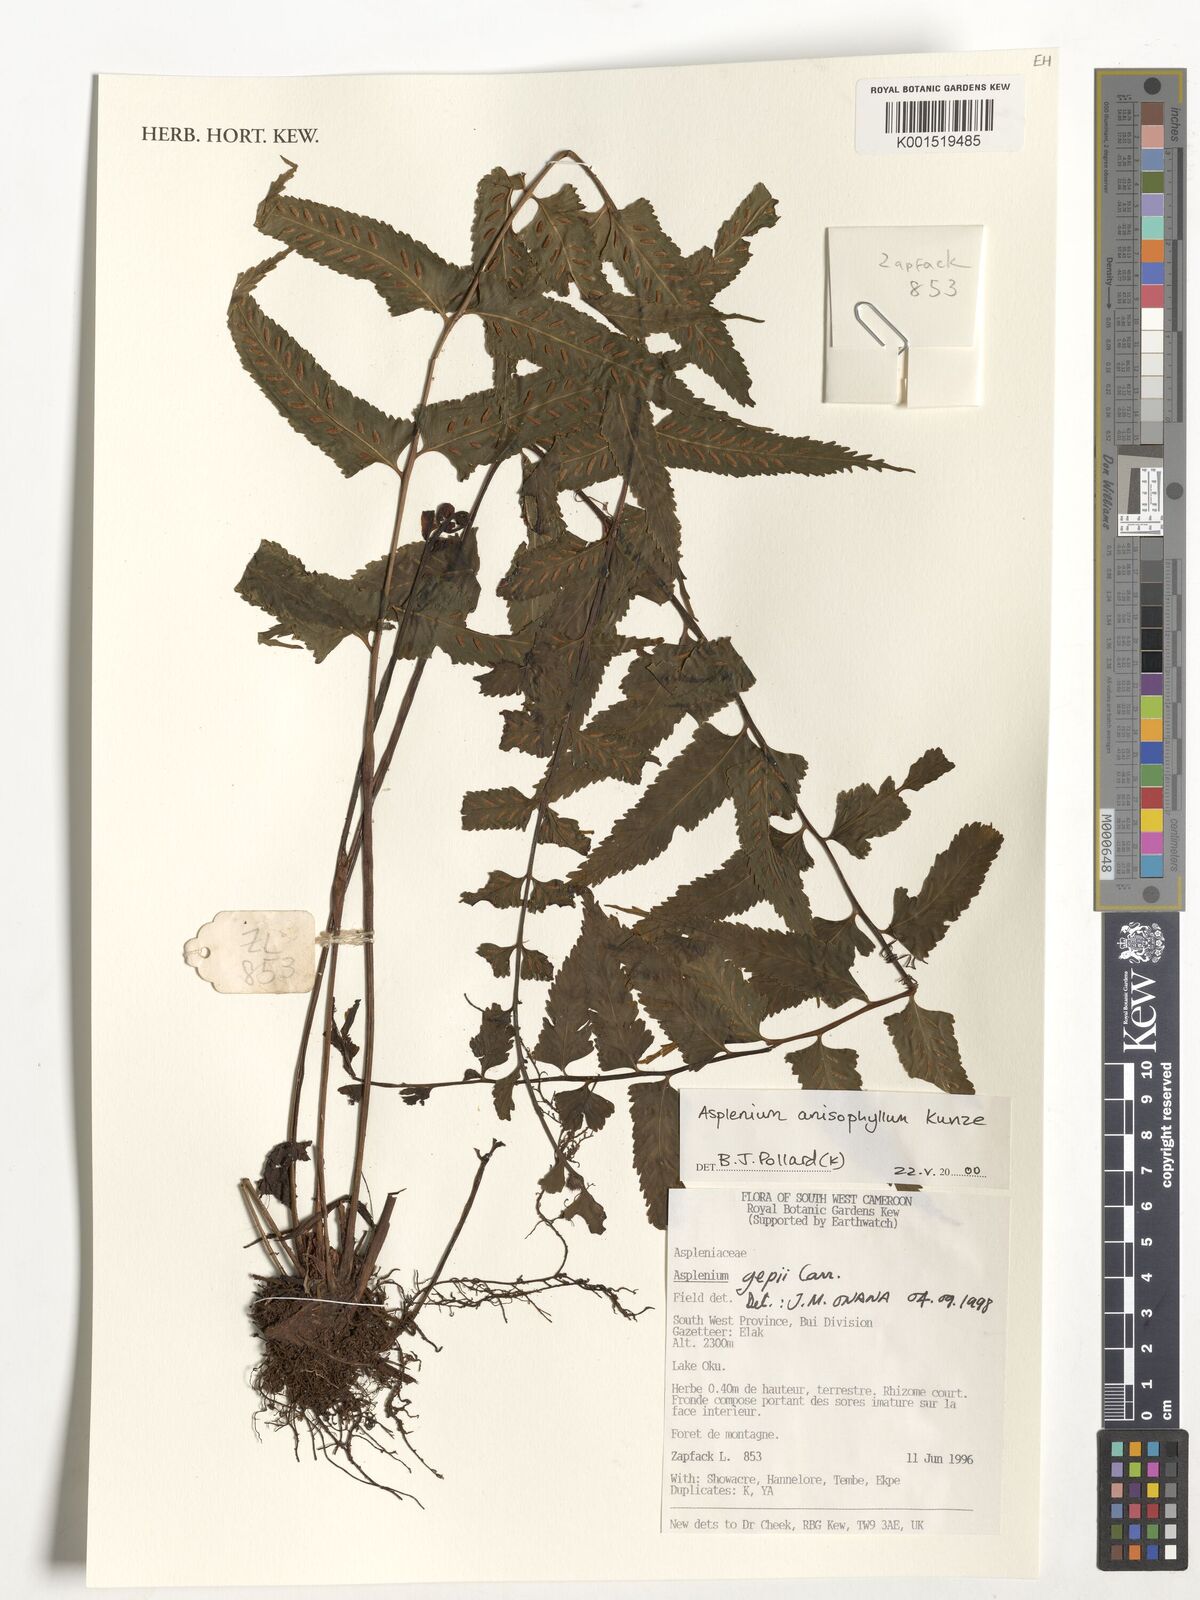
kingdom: Plantae
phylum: Tracheophyta
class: Polypodiopsida
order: Polypodiales
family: Aspleniaceae
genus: Asplenium
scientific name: Asplenium anisophyllum
